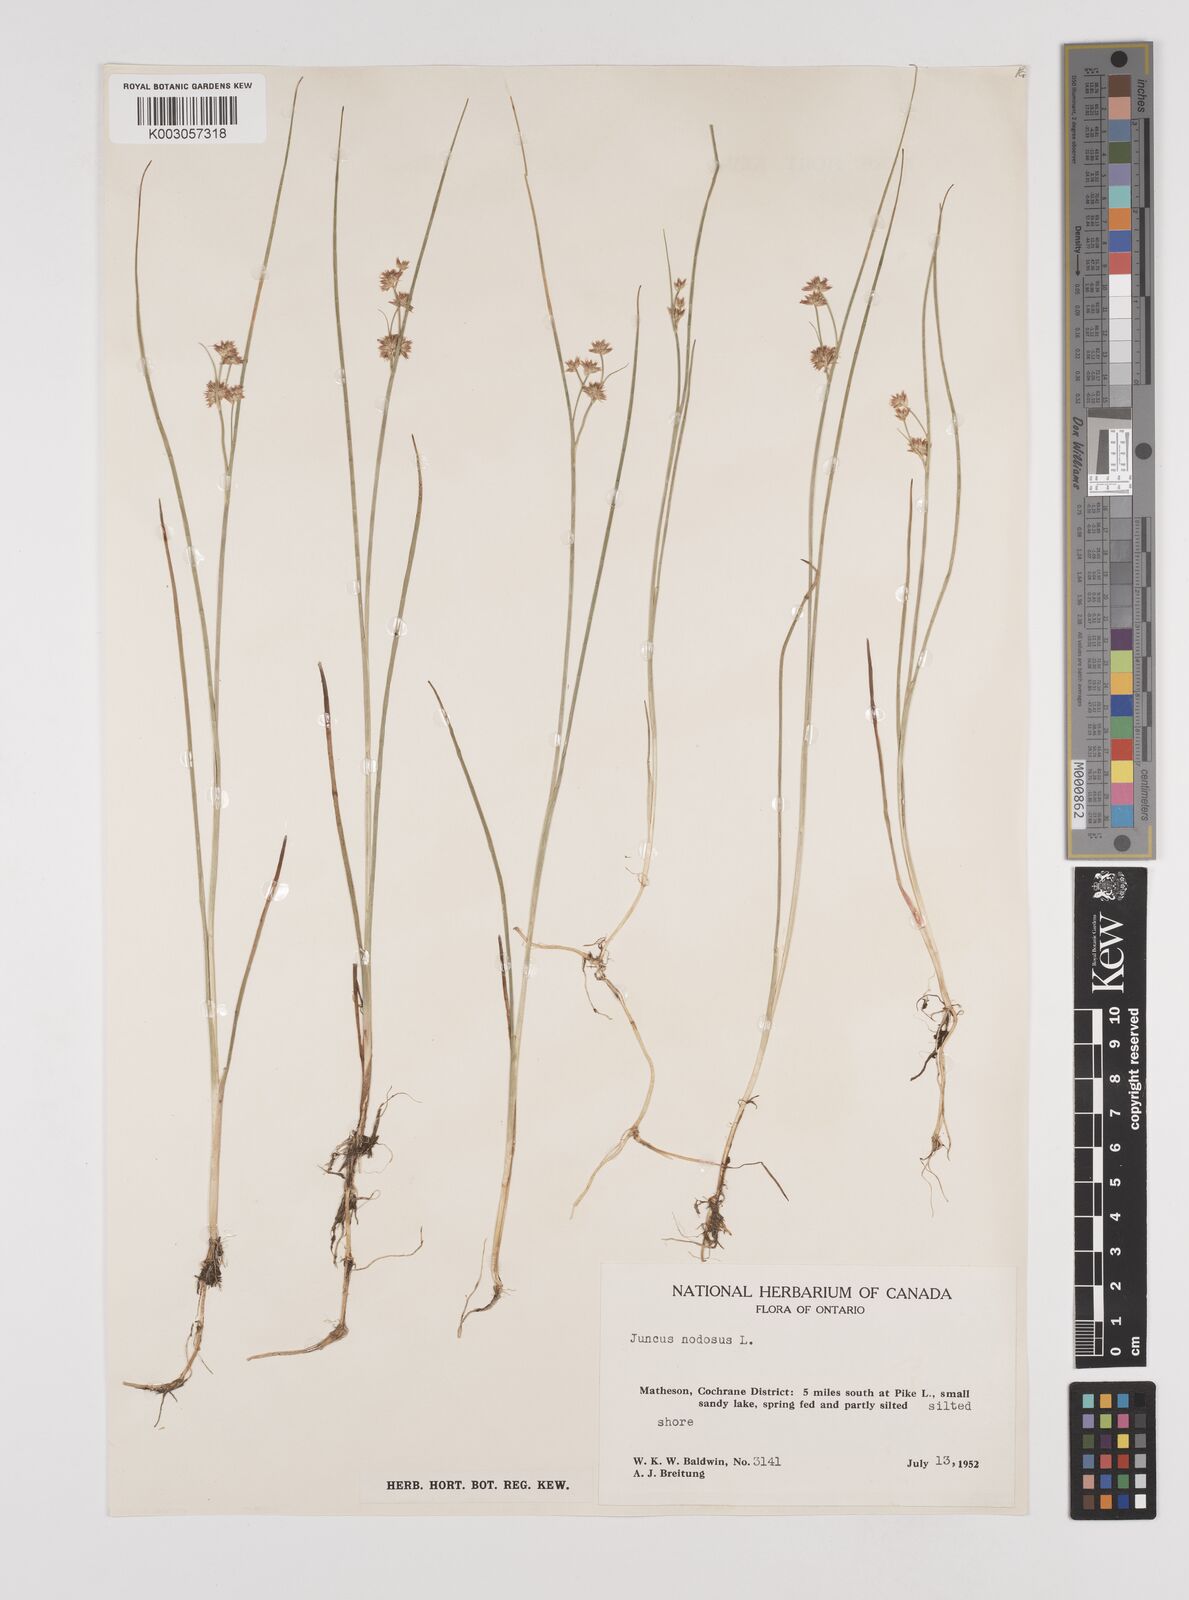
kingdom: Plantae
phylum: Tracheophyta
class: Liliopsida
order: Poales
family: Juncaceae
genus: Juncus
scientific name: Juncus nodosus
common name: Knotted rush
